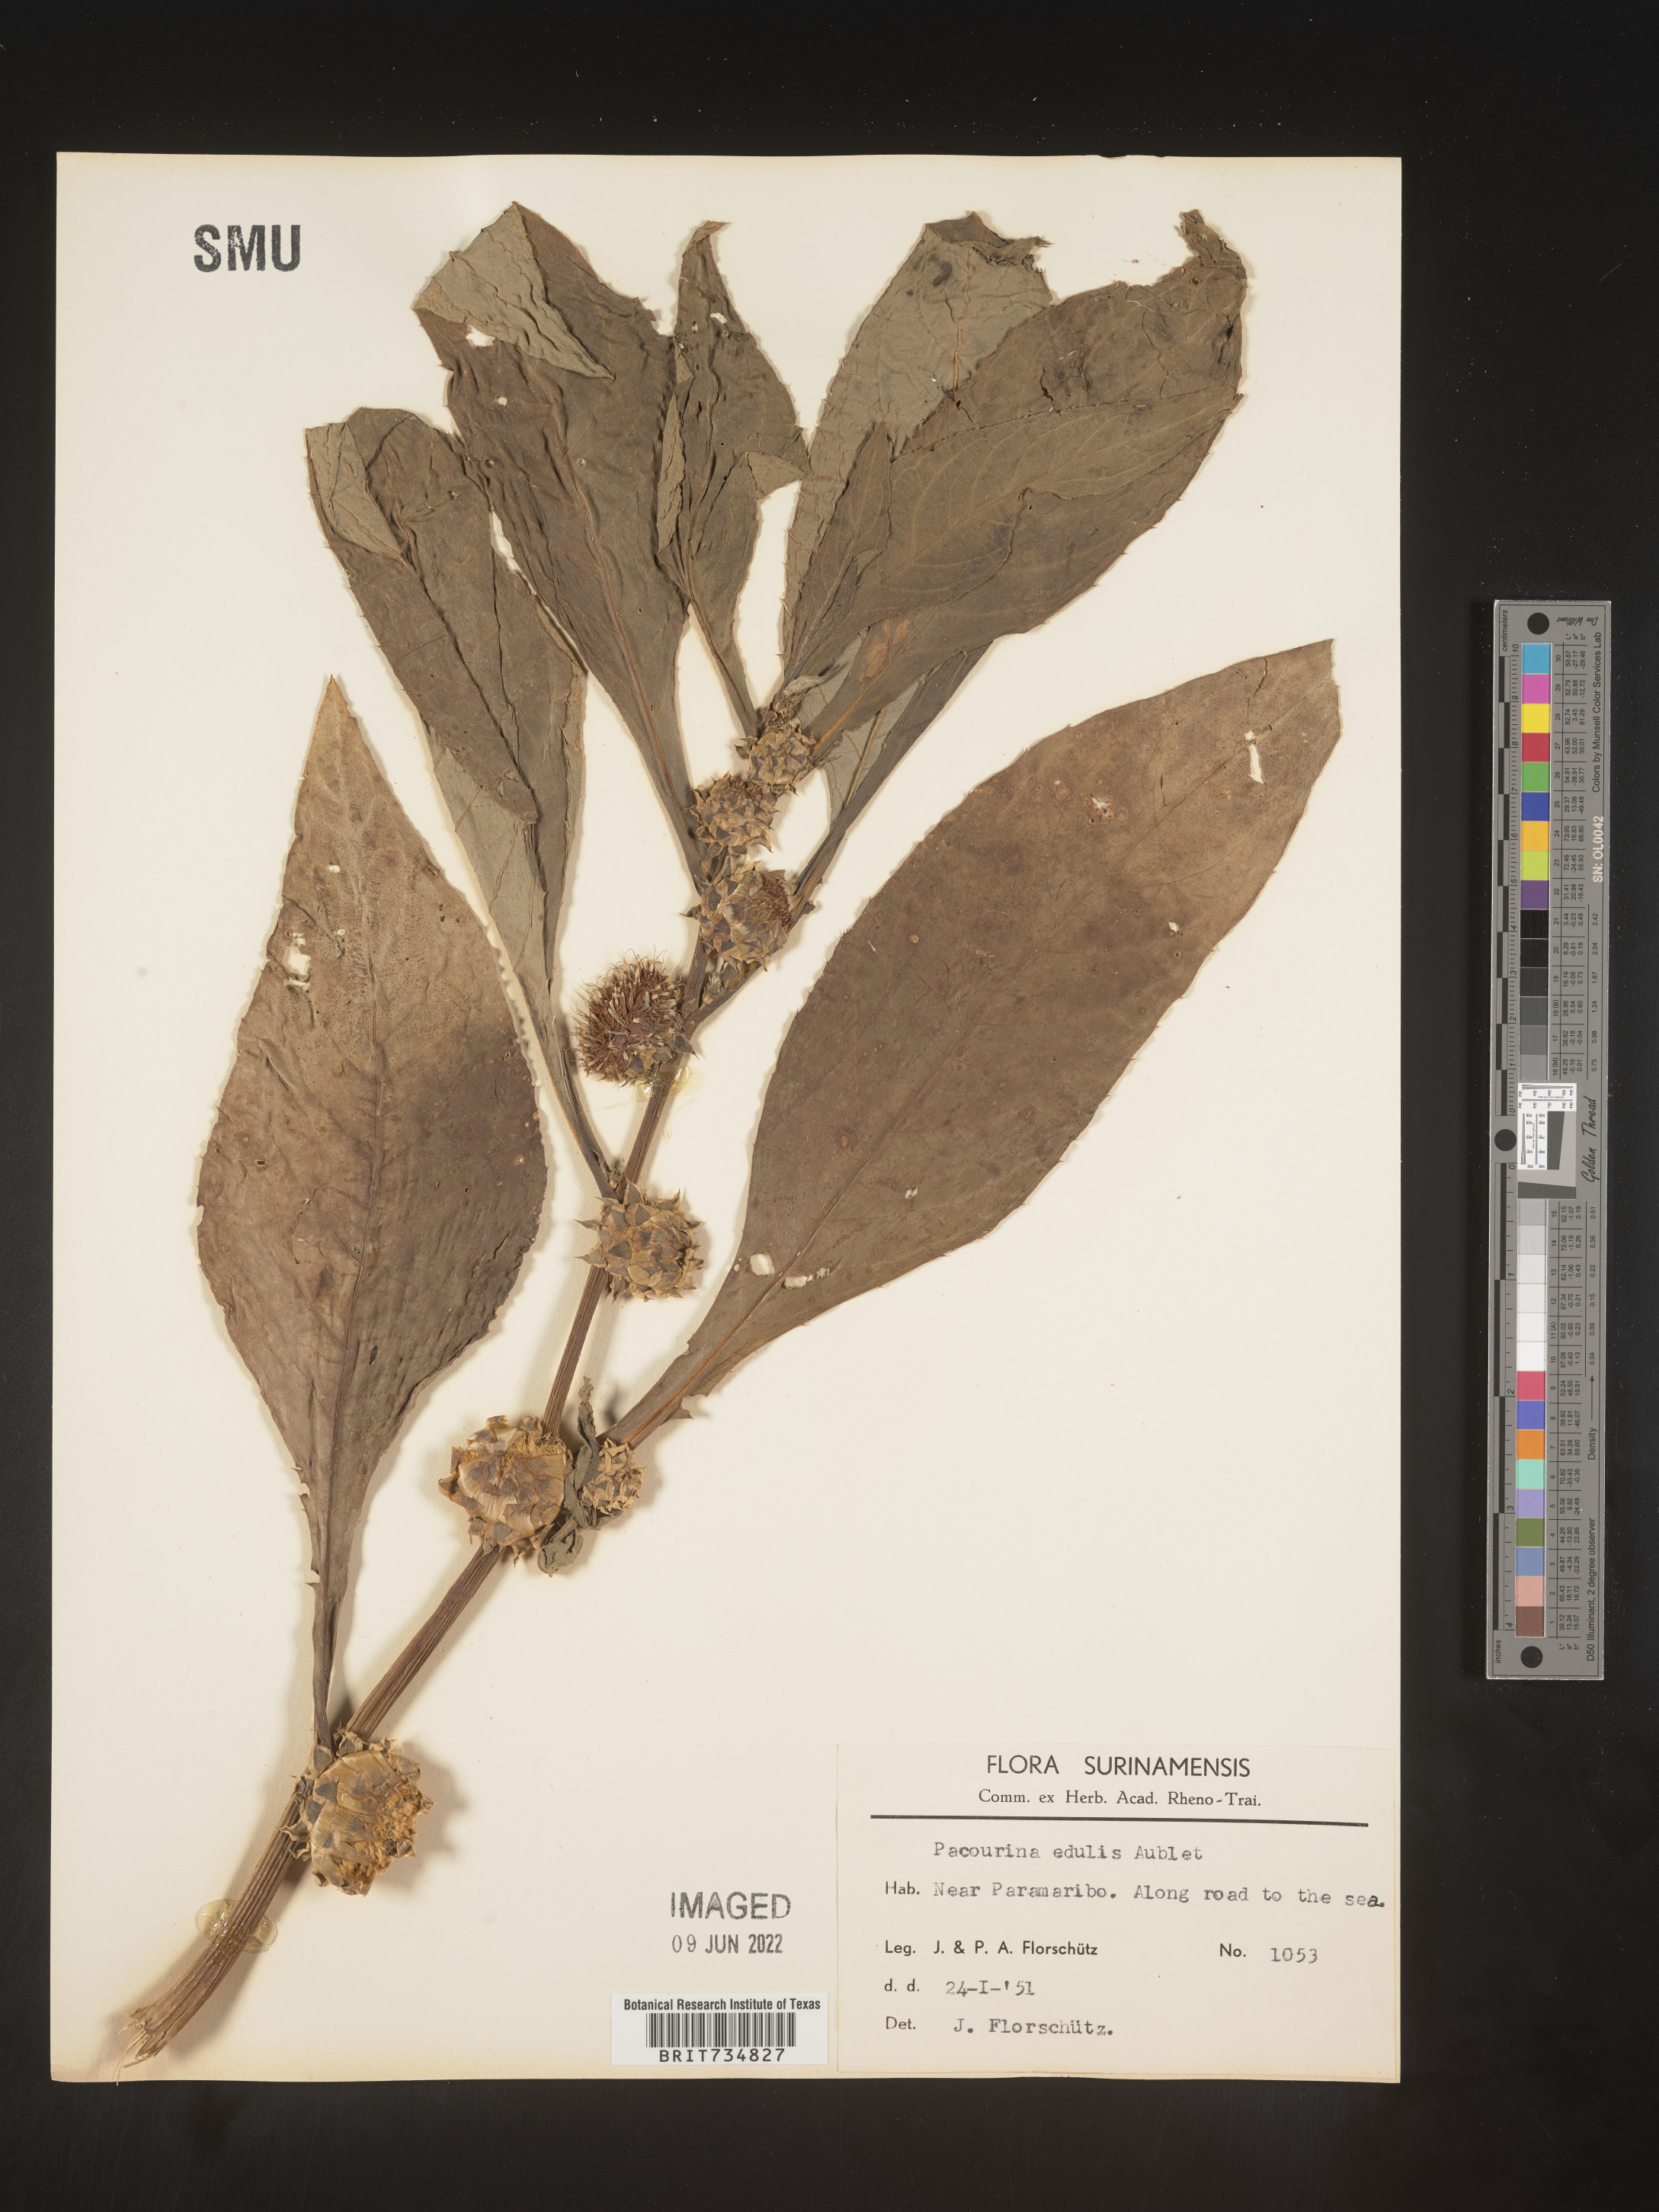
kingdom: Plantae
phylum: Tracheophyta
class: Magnoliopsida
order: Asterales
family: Asteraceae
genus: Pacourina
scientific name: Pacourina
